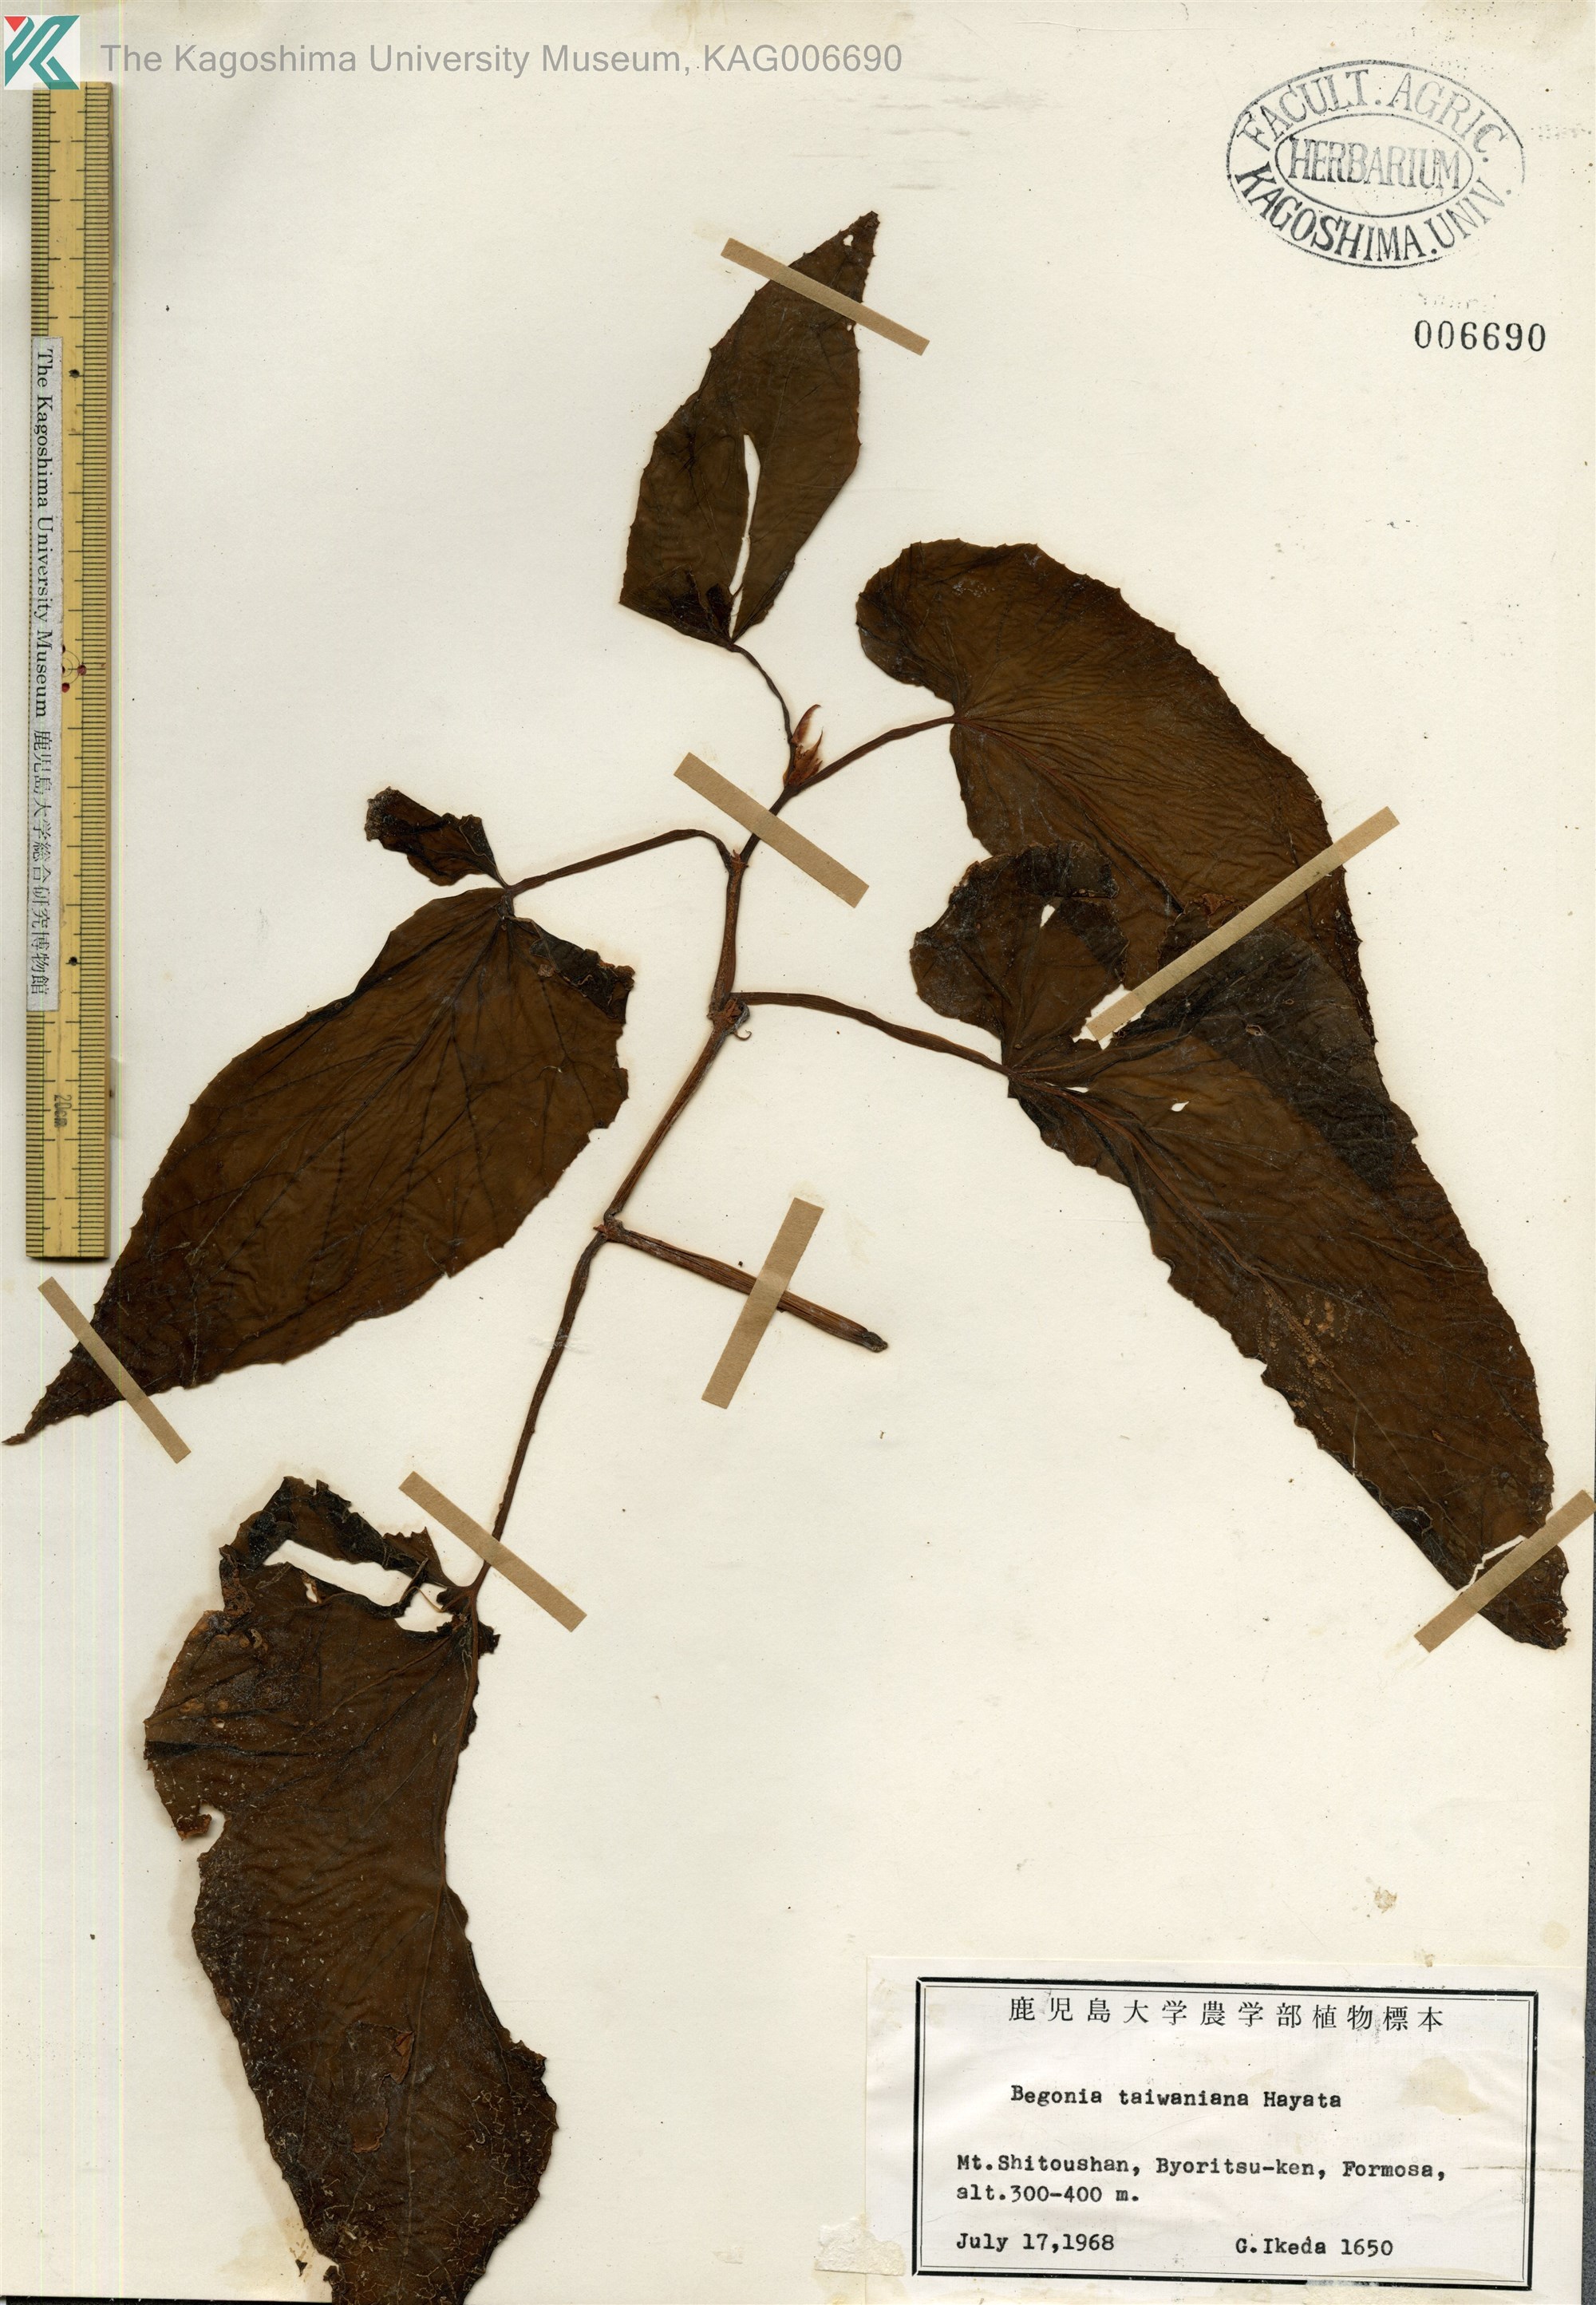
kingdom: Plantae
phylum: Tracheophyta
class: Magnoliopsida
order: Cucurbitales
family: Begoniaceae
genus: Begonia
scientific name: Begonia taiwaniana
